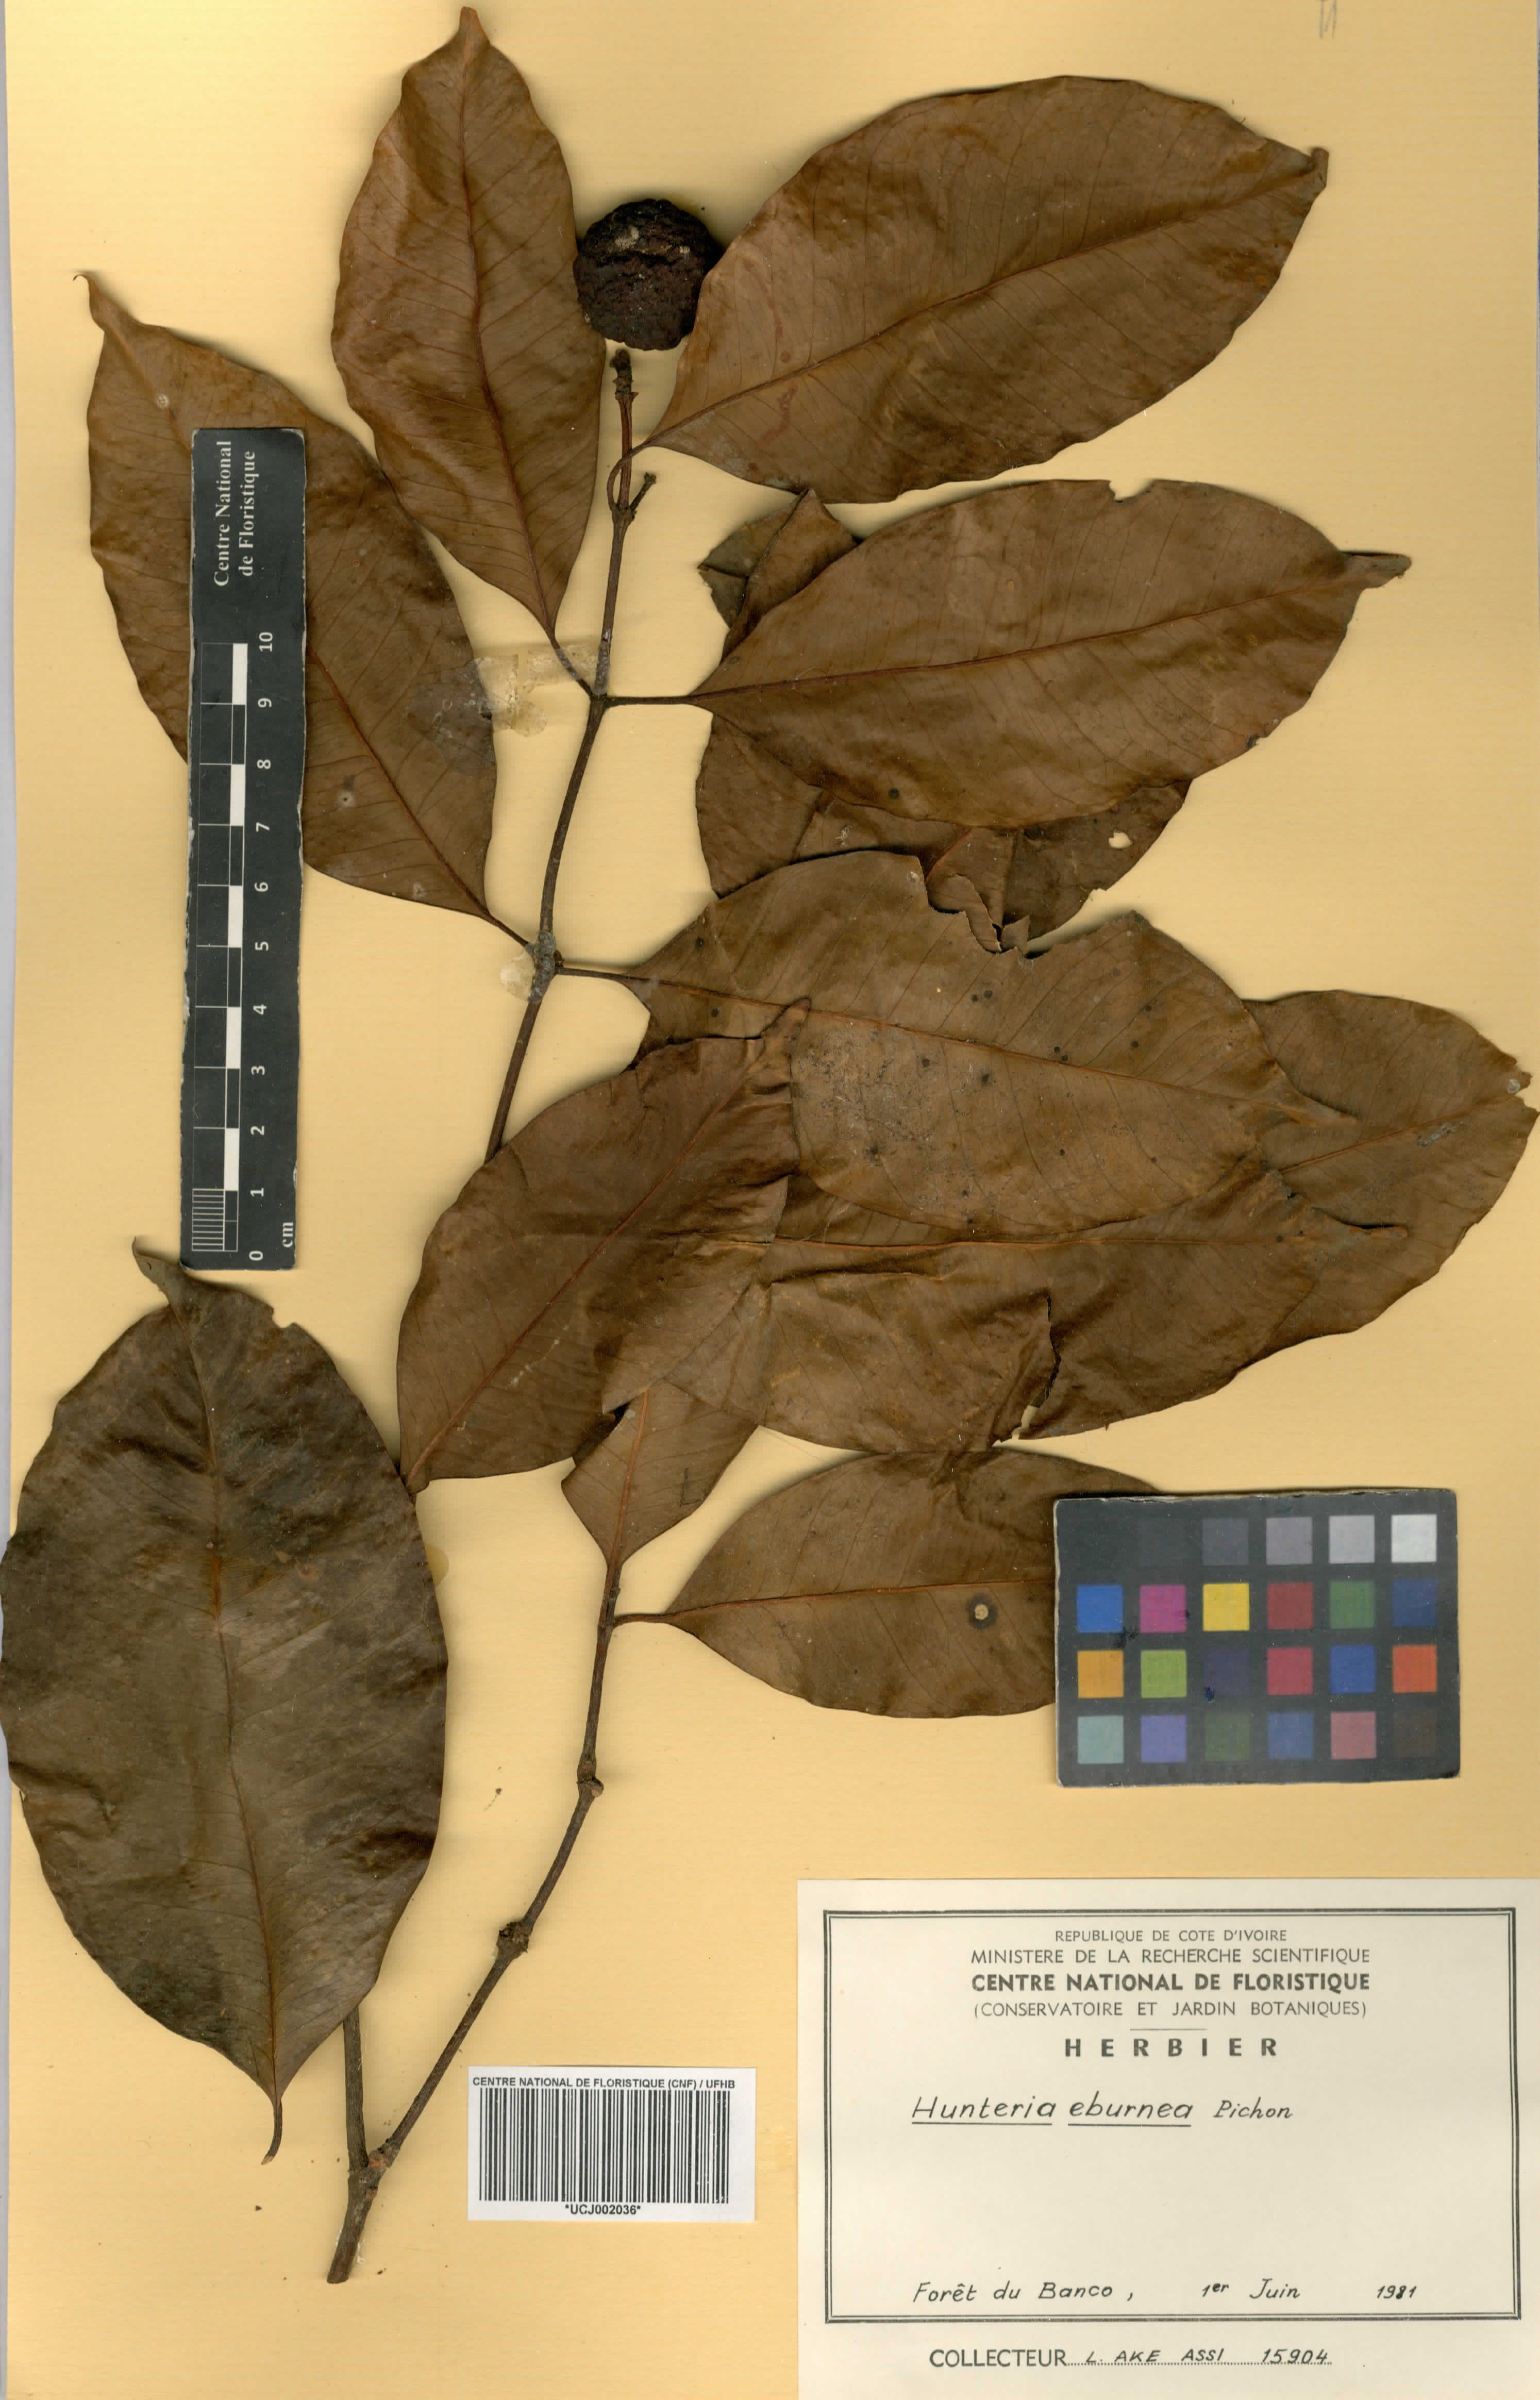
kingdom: Plantae
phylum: Tracheophyta
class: Magnoliopsida
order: Gentianales
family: Apocynaceae
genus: Hunteria
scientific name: Hunteria umbellata
